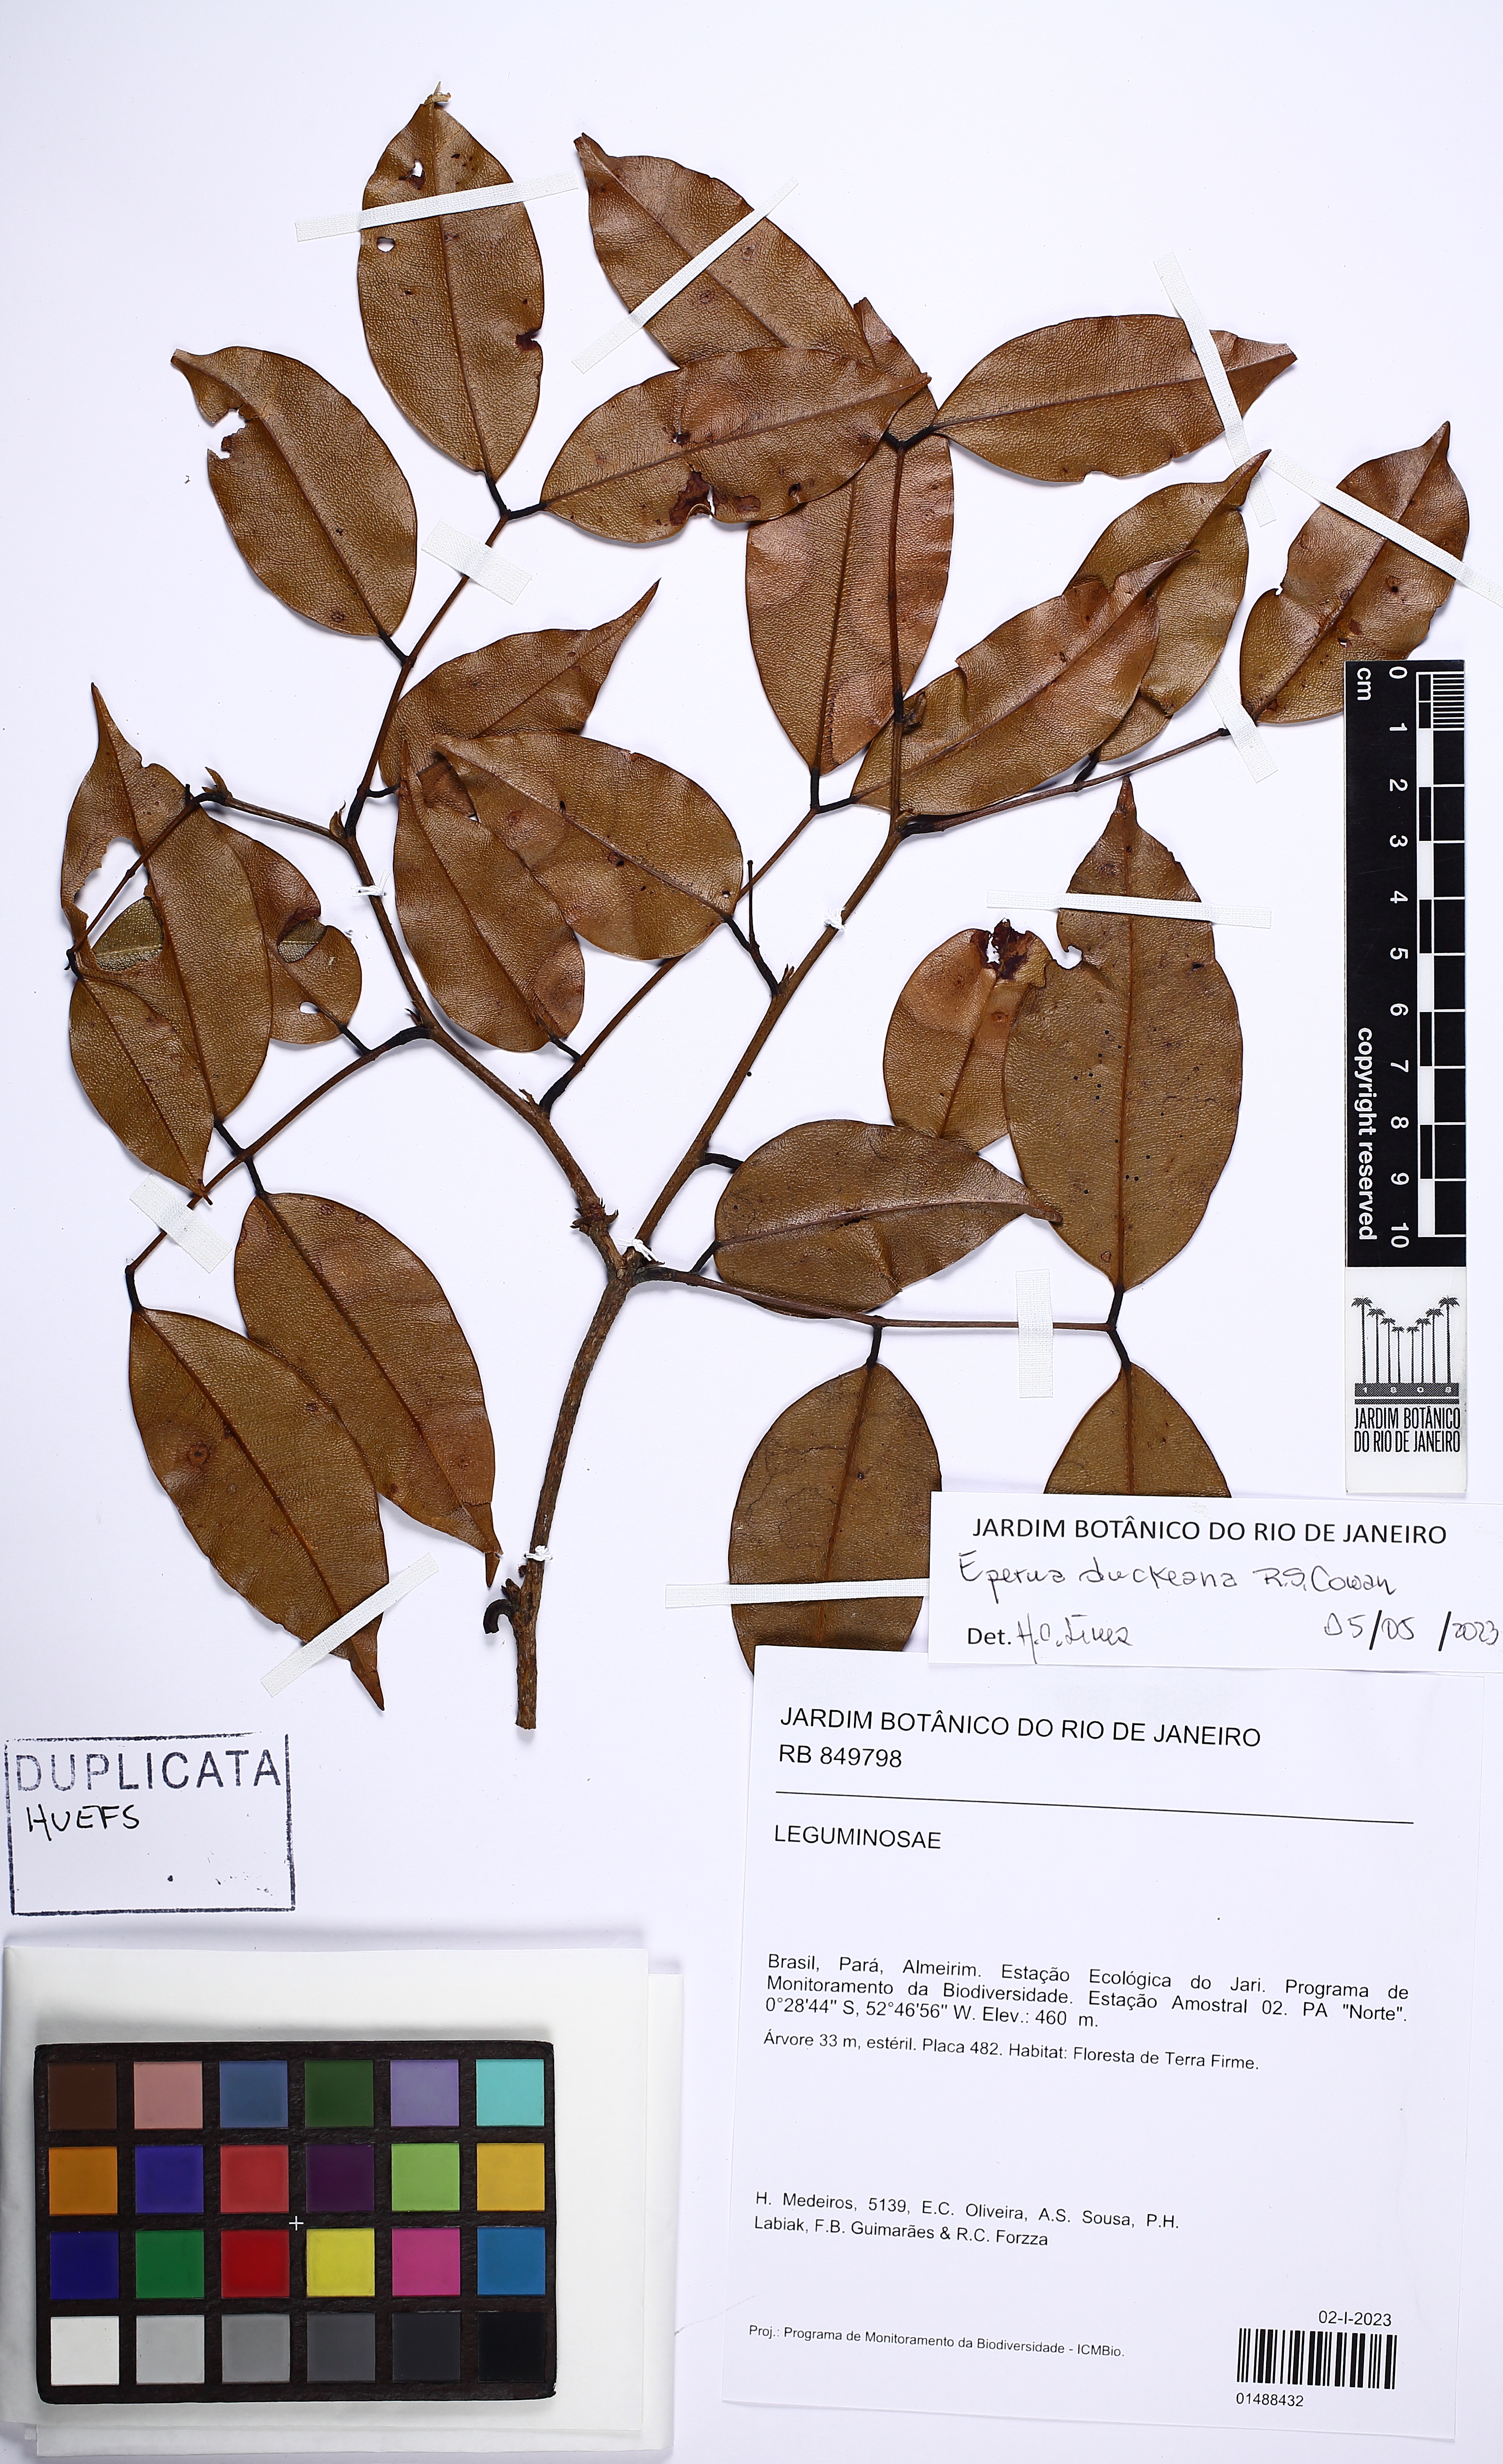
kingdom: Plantae
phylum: Tracheophyta
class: Magnoliopsida
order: Fabales
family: Fabaceae
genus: Eperua
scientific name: Eperua duckeana
